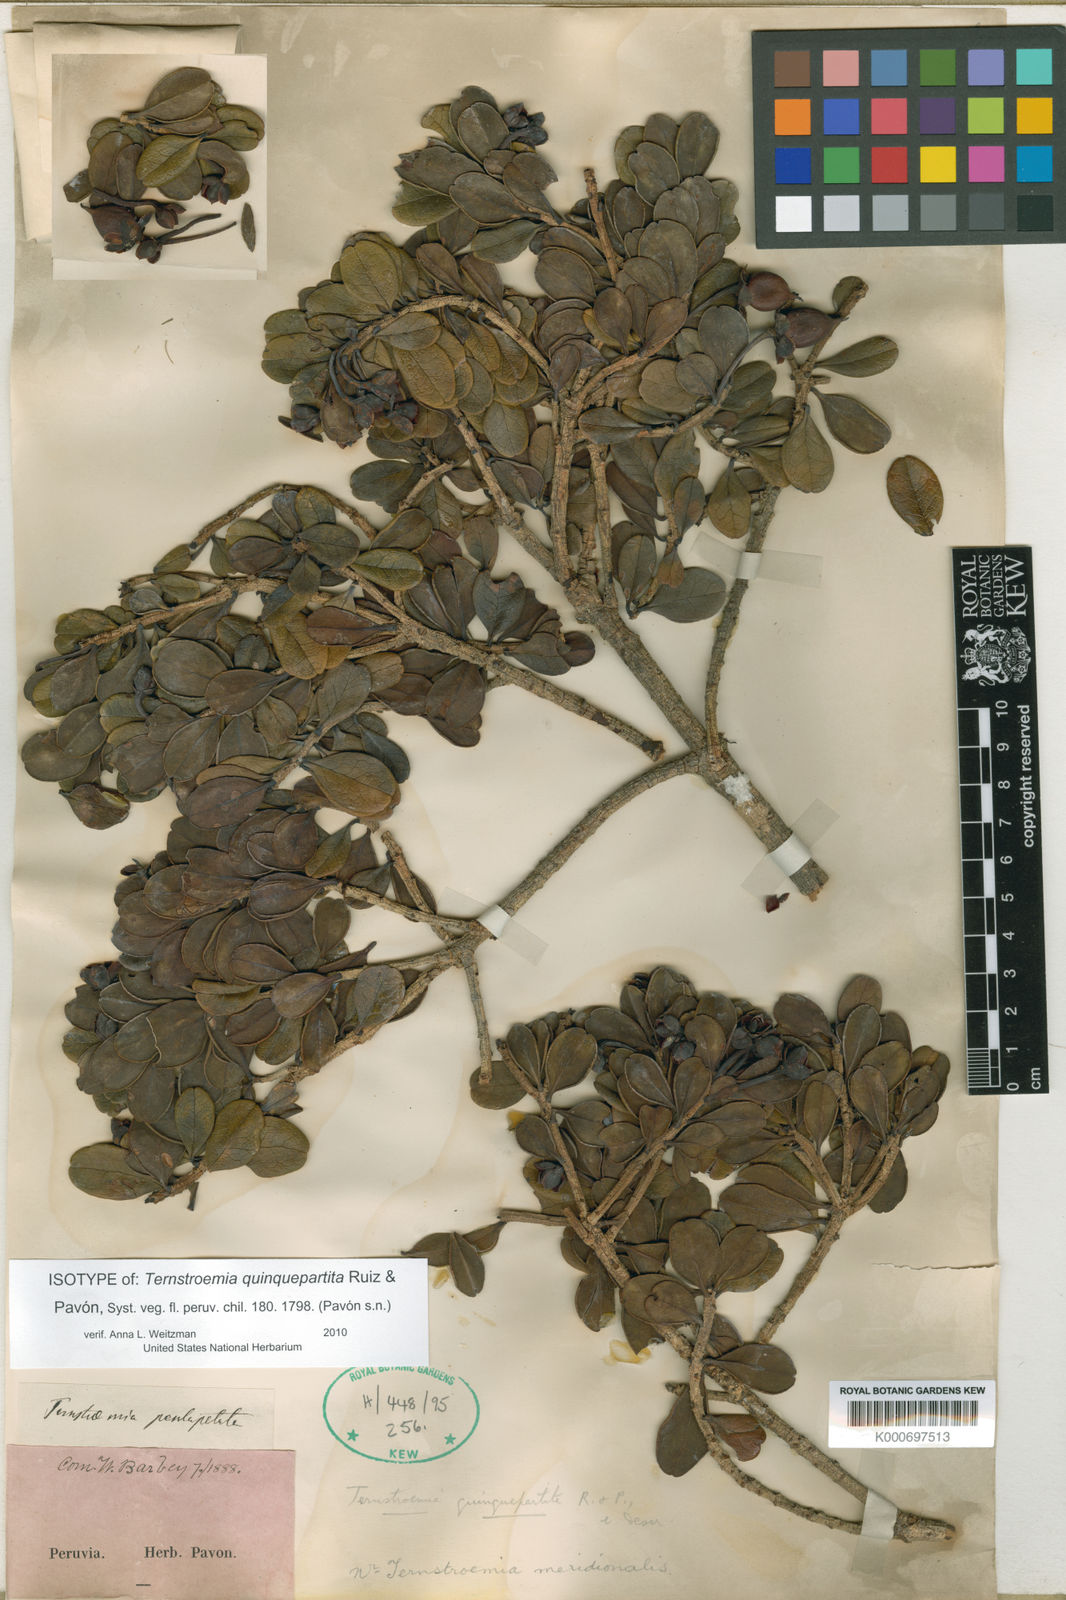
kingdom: Plantae
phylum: Tracheophyta
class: Magnoliopsida
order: Ericales
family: Pentaphylacaceae
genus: Ternstroemia
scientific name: Ternstroemia quinquepartita
